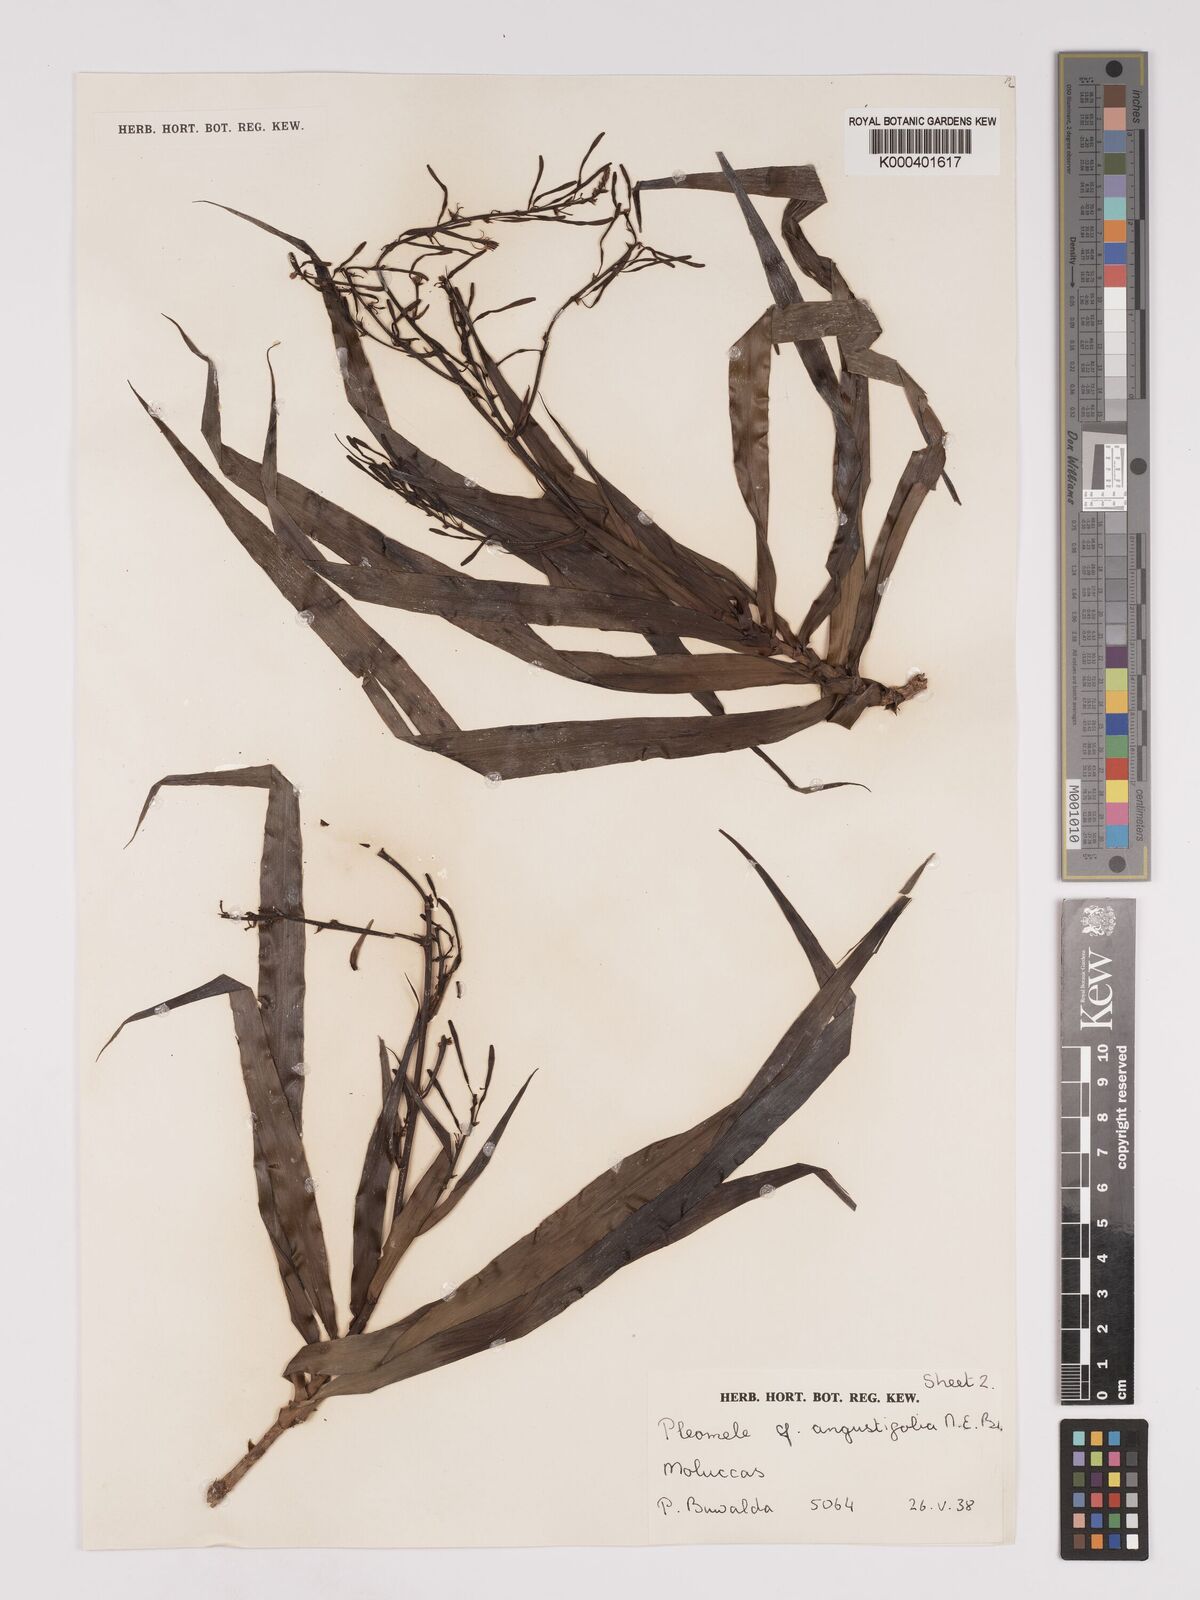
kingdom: Plantae
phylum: Tracheophyta
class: Liliopsida
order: Asparagales
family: Asparagaceae
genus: Dracaena
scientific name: Dracaena angustifolia
